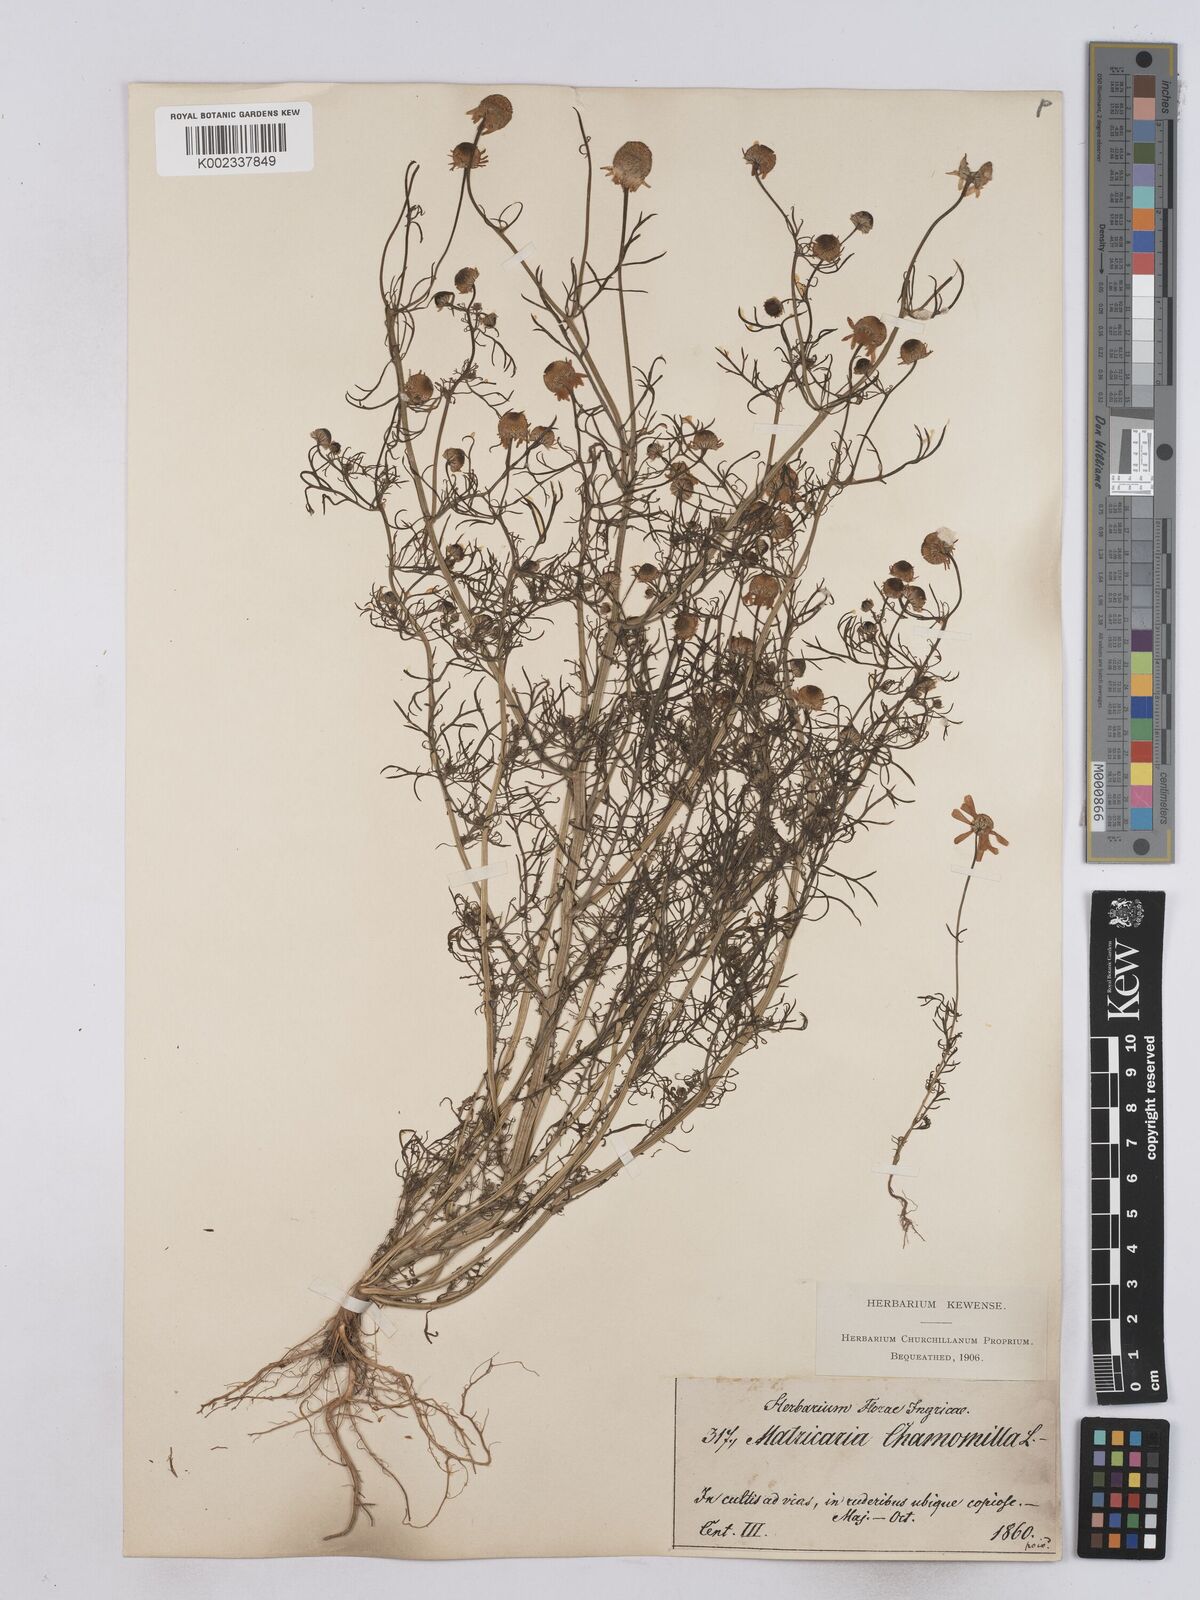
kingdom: Plantae
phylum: Tracheophyta
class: Magnoliopsida
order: Asterales
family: Asteraceae
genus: Matricaria
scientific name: Matricaria chamomilla
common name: Scented mayweed
